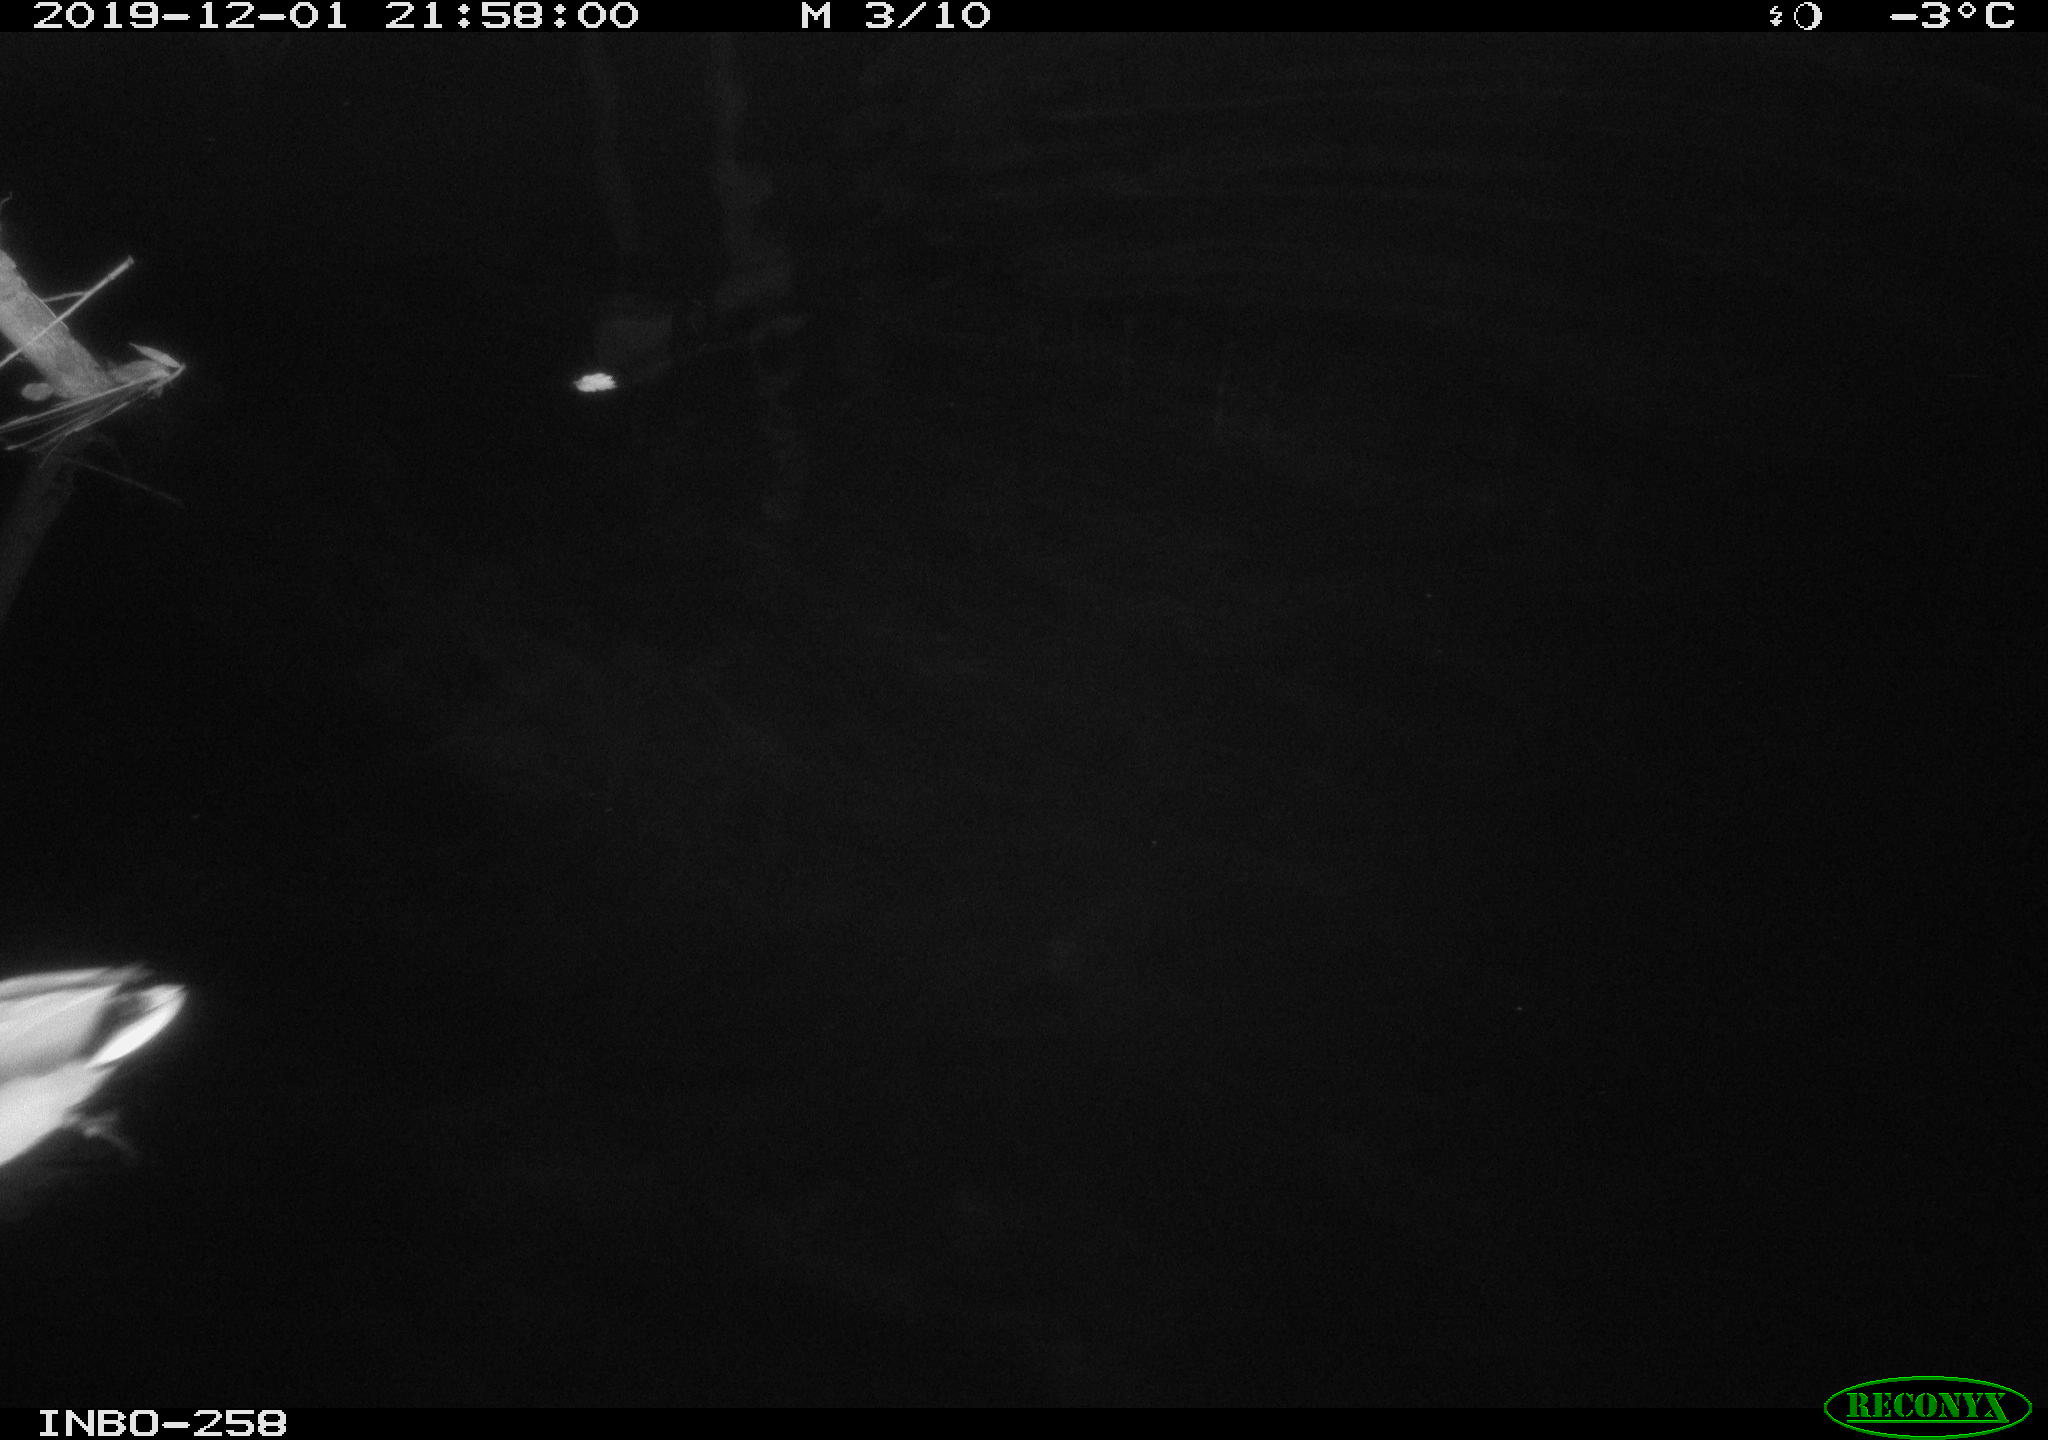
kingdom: Animalia
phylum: Chordata
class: Aves
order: Anseriformes
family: Anatidae
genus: Anas
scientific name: Anas platyrhynchos
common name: Mallard
